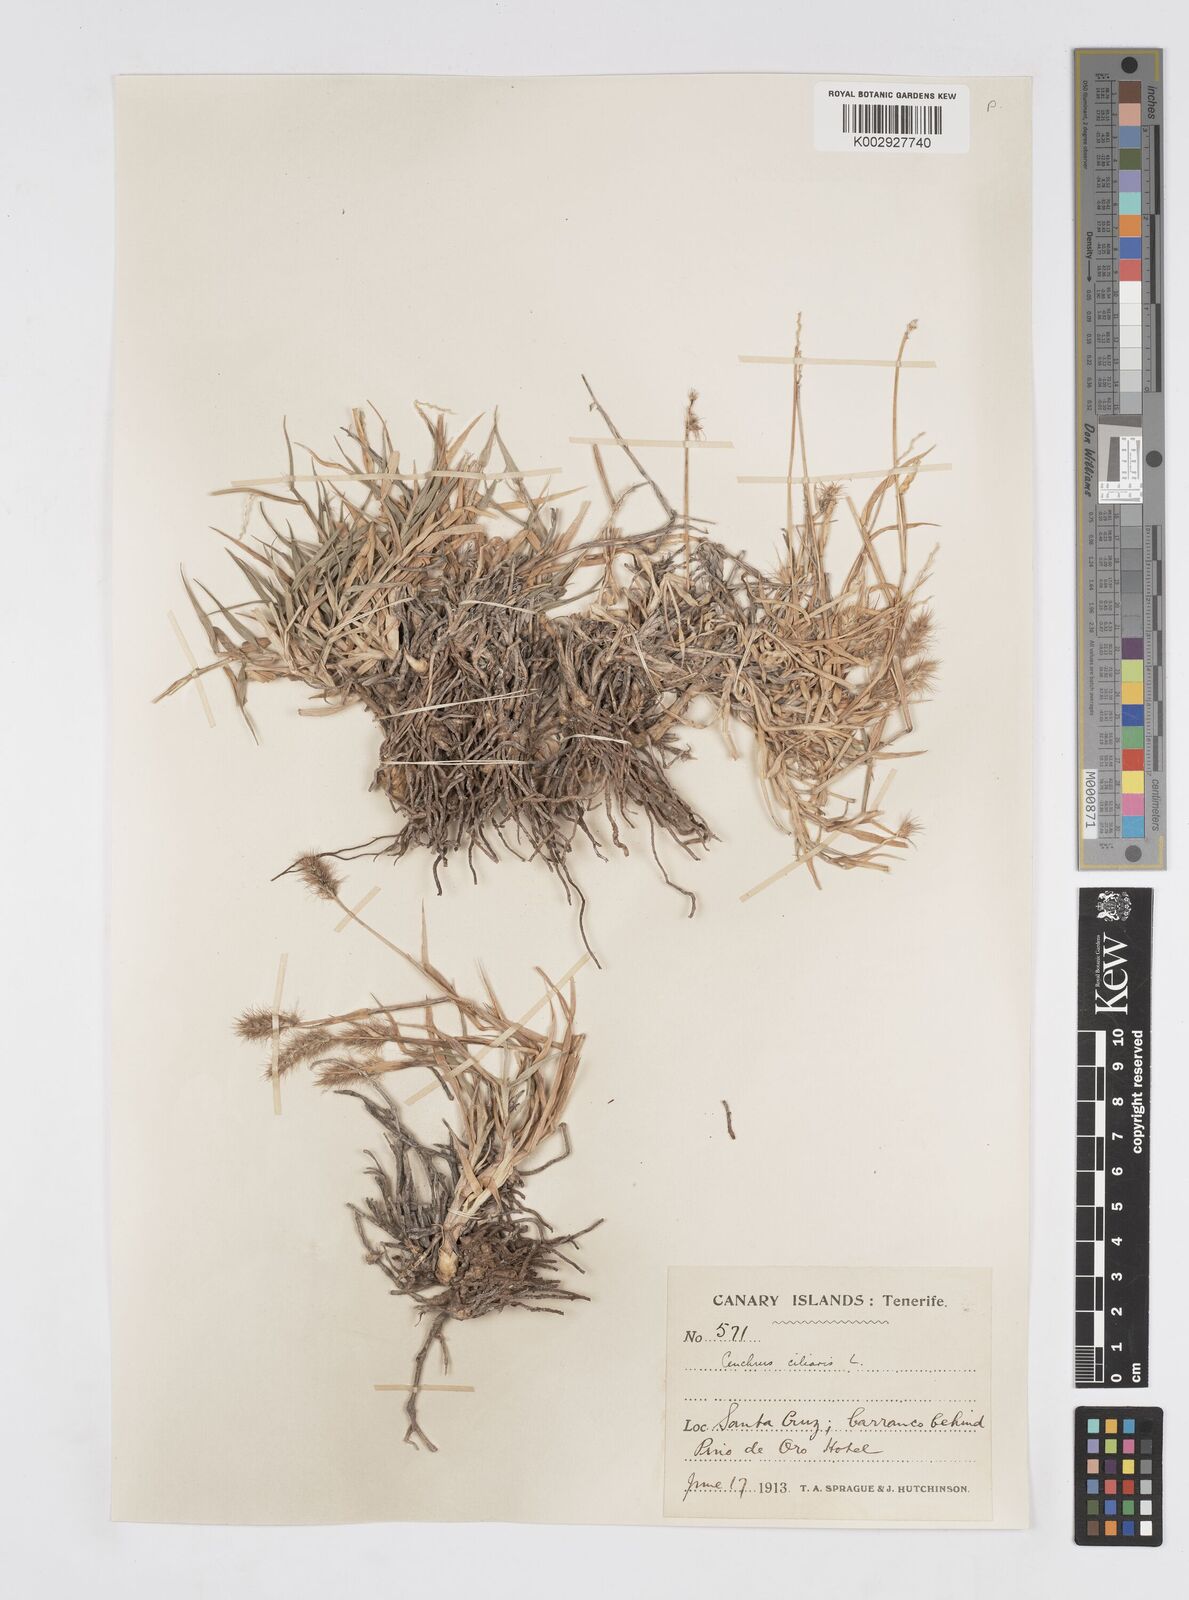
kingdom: Plantae
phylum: Tracheophyta
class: Liliopsida
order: Poales
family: Poaceae
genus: Cenchrus
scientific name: Cenchrus ciliaris
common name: Buffelgrass
